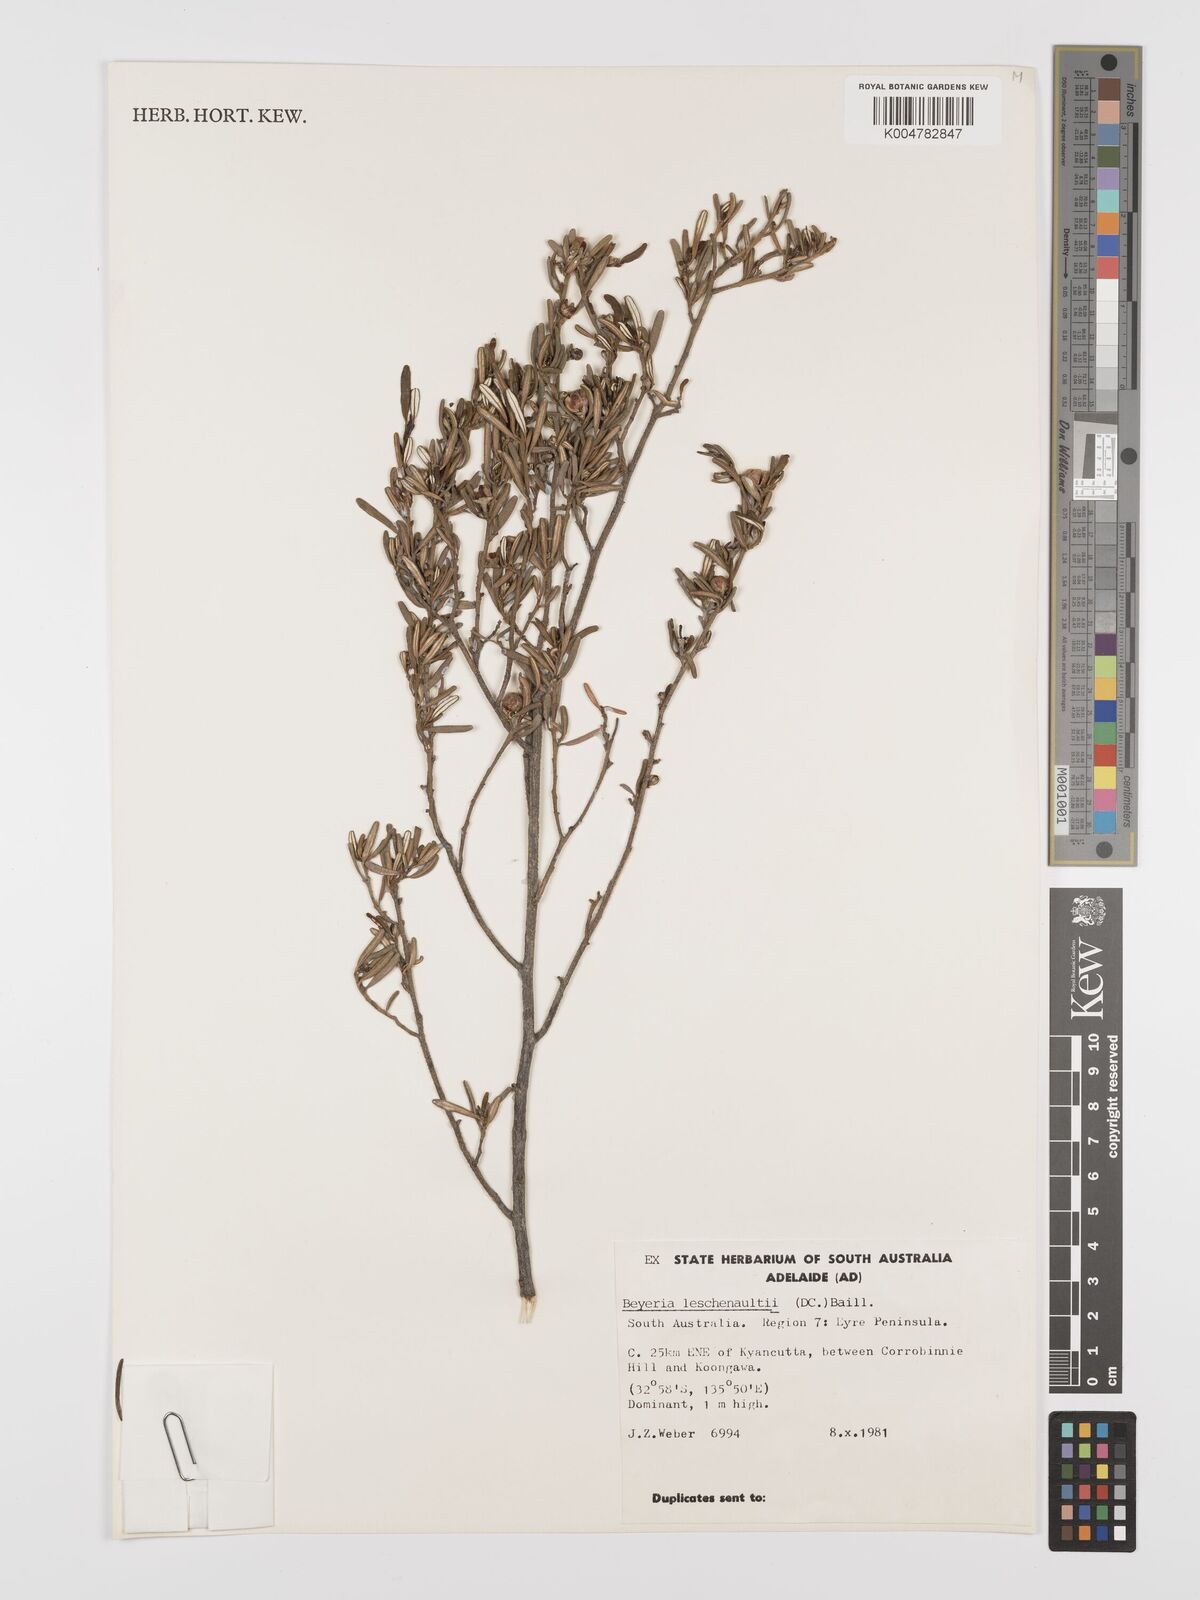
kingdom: Plantae
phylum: Tracheophyta
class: Magnoliopsida
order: Malpighiales
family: Euphorbiaceae
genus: Beyeria
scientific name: Beyeria lechenaultii
